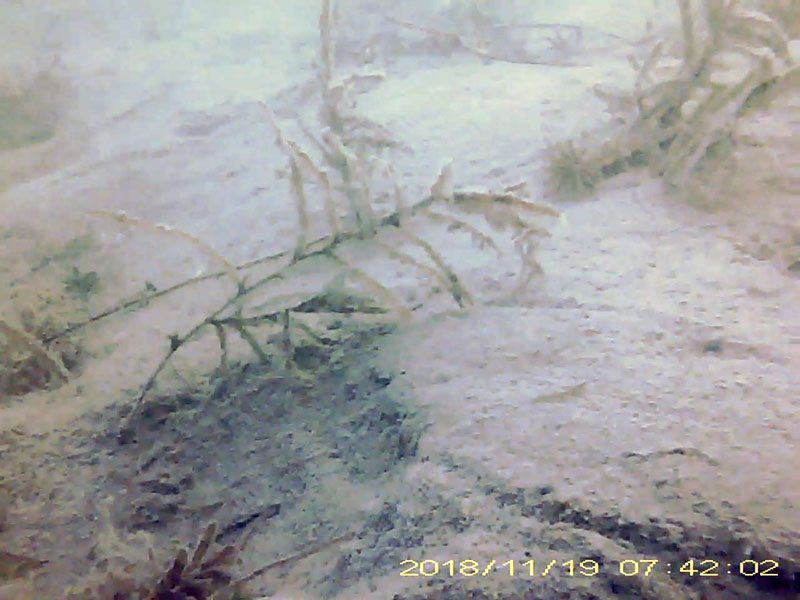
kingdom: Animalia
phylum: Arthropoda
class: Malacostraca
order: Decapoda
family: Hippolytidae
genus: Hippolyte
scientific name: Hippolyte
